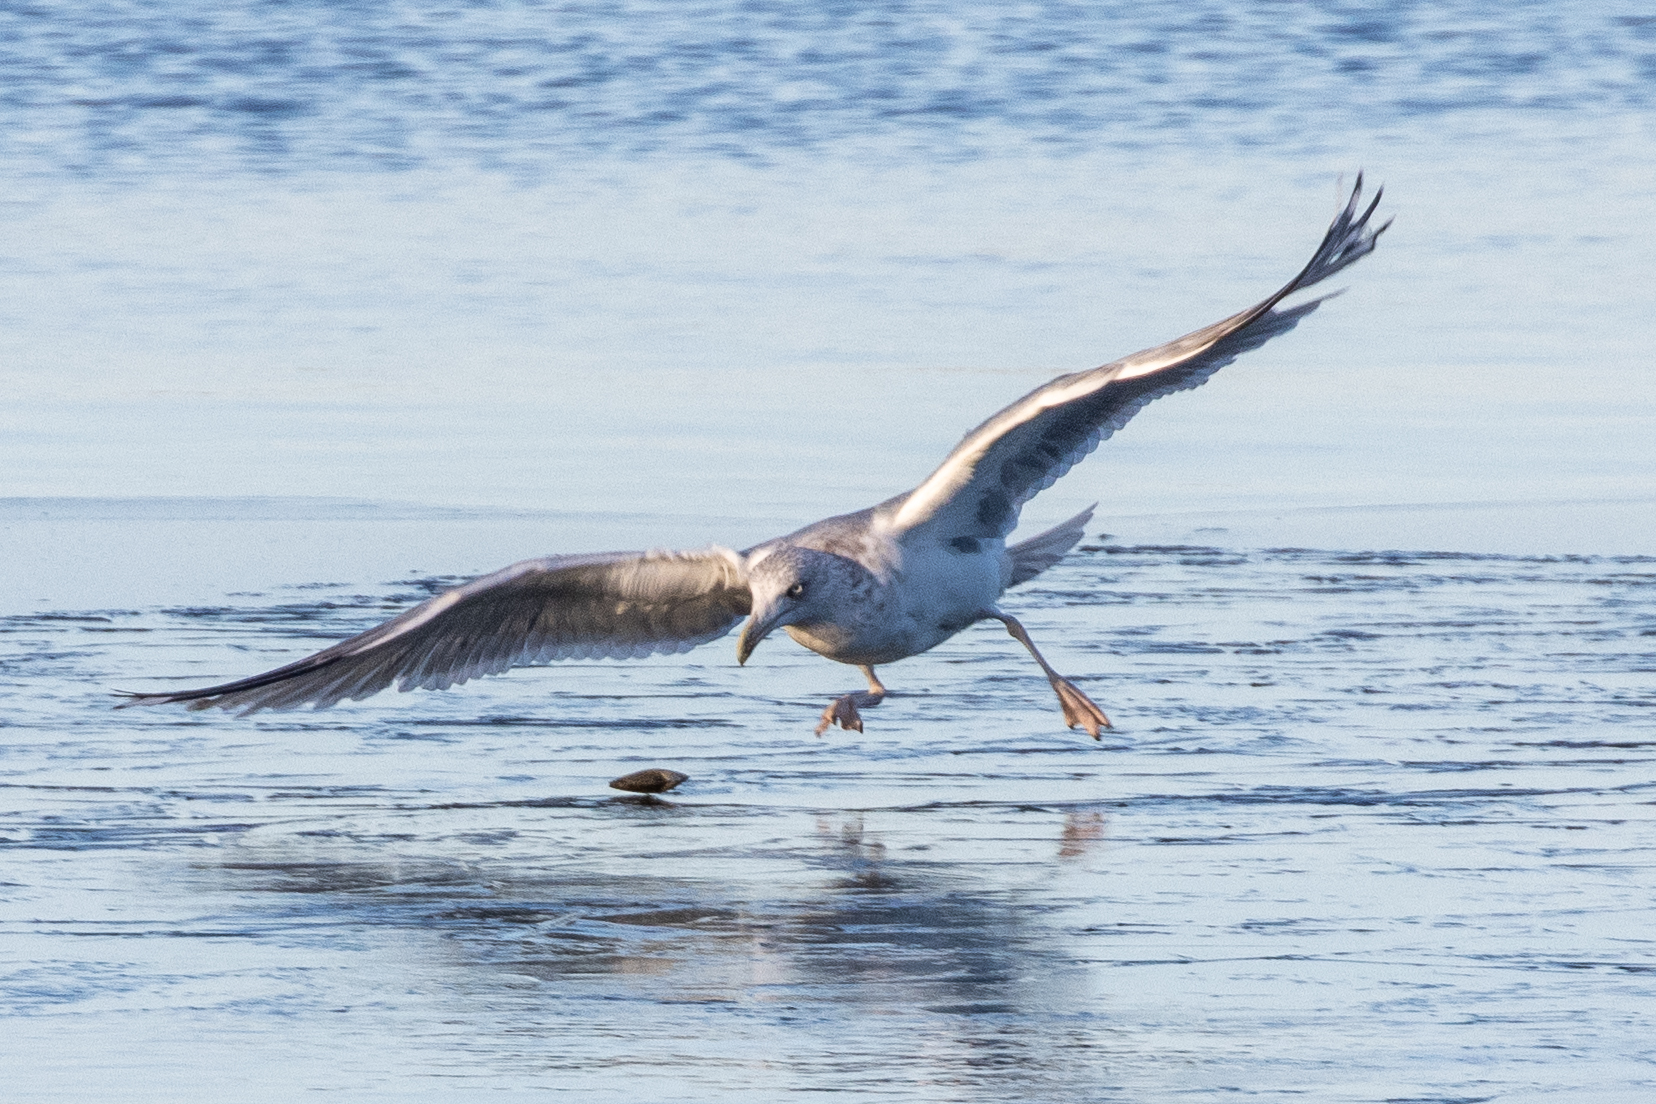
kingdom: Animalia
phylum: Chordata
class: Aves
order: Charadriiformes
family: Laridae
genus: Larus
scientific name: Larus argentatus
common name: Sølvmåge
